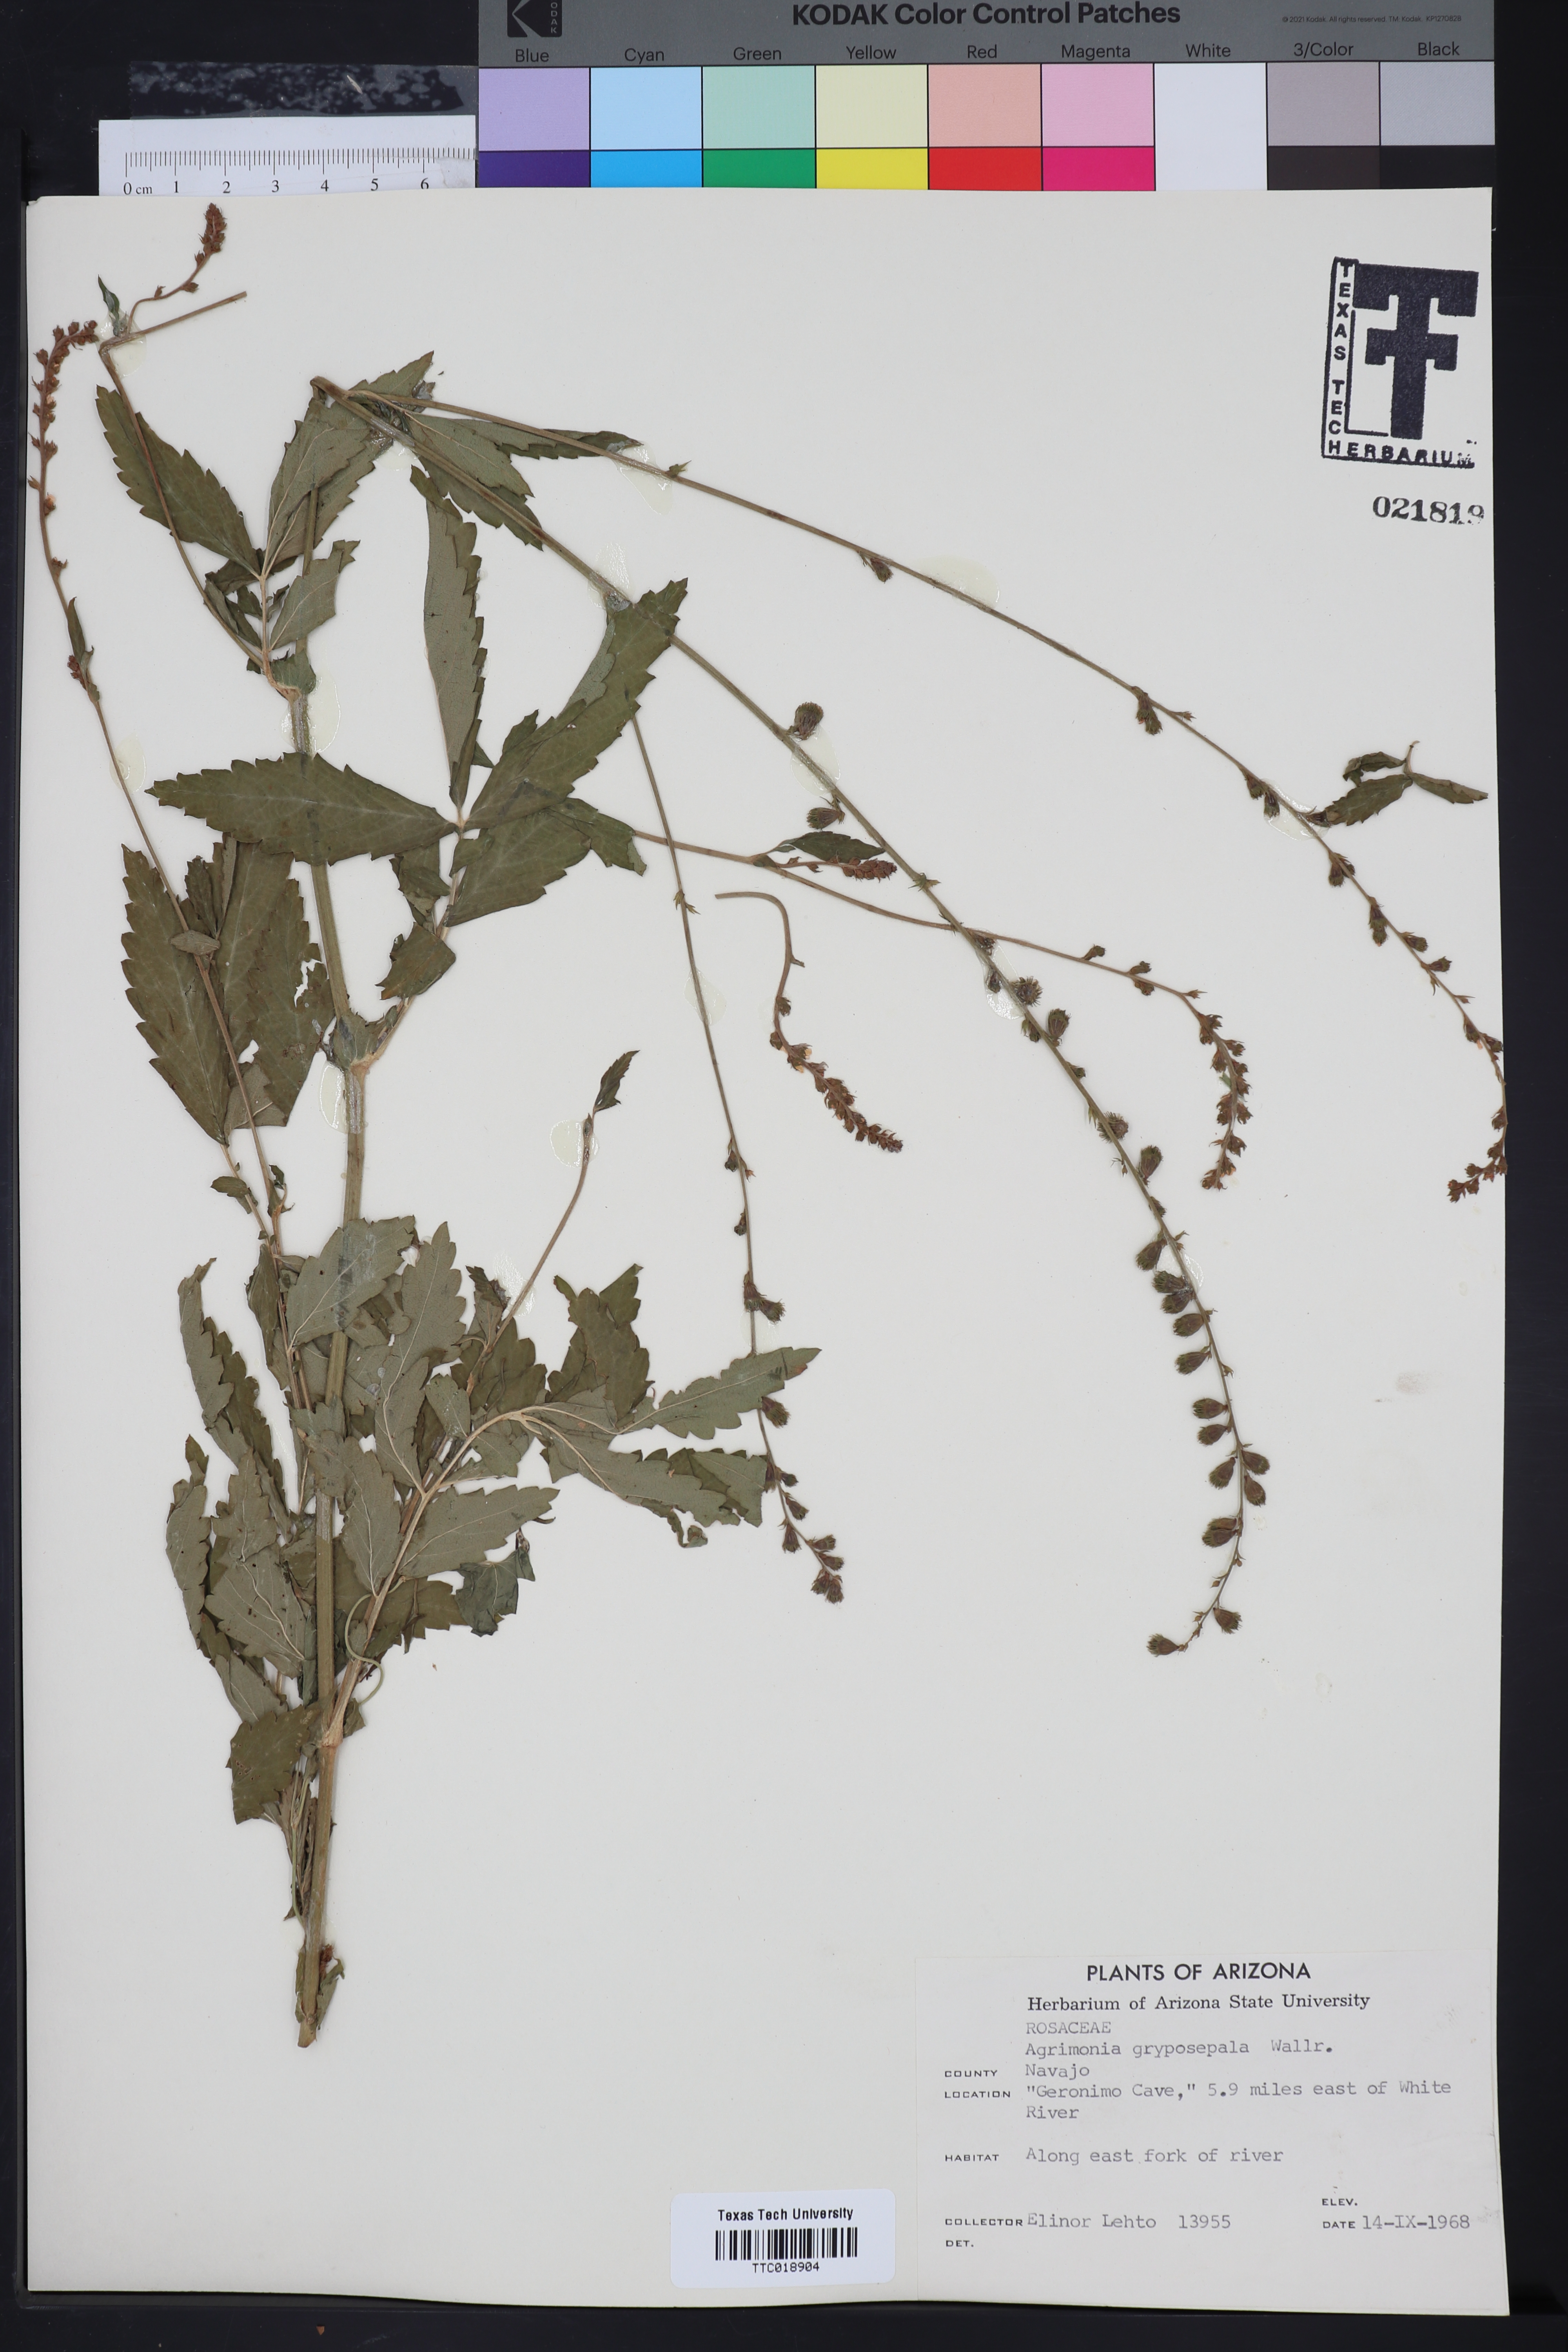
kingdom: Plantae
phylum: Tracheophyta
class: Magnoliopsida
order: Rosales
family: Rosaceae
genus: Agrimonia
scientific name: Agrimonia gryposepala
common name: Common agrimony
